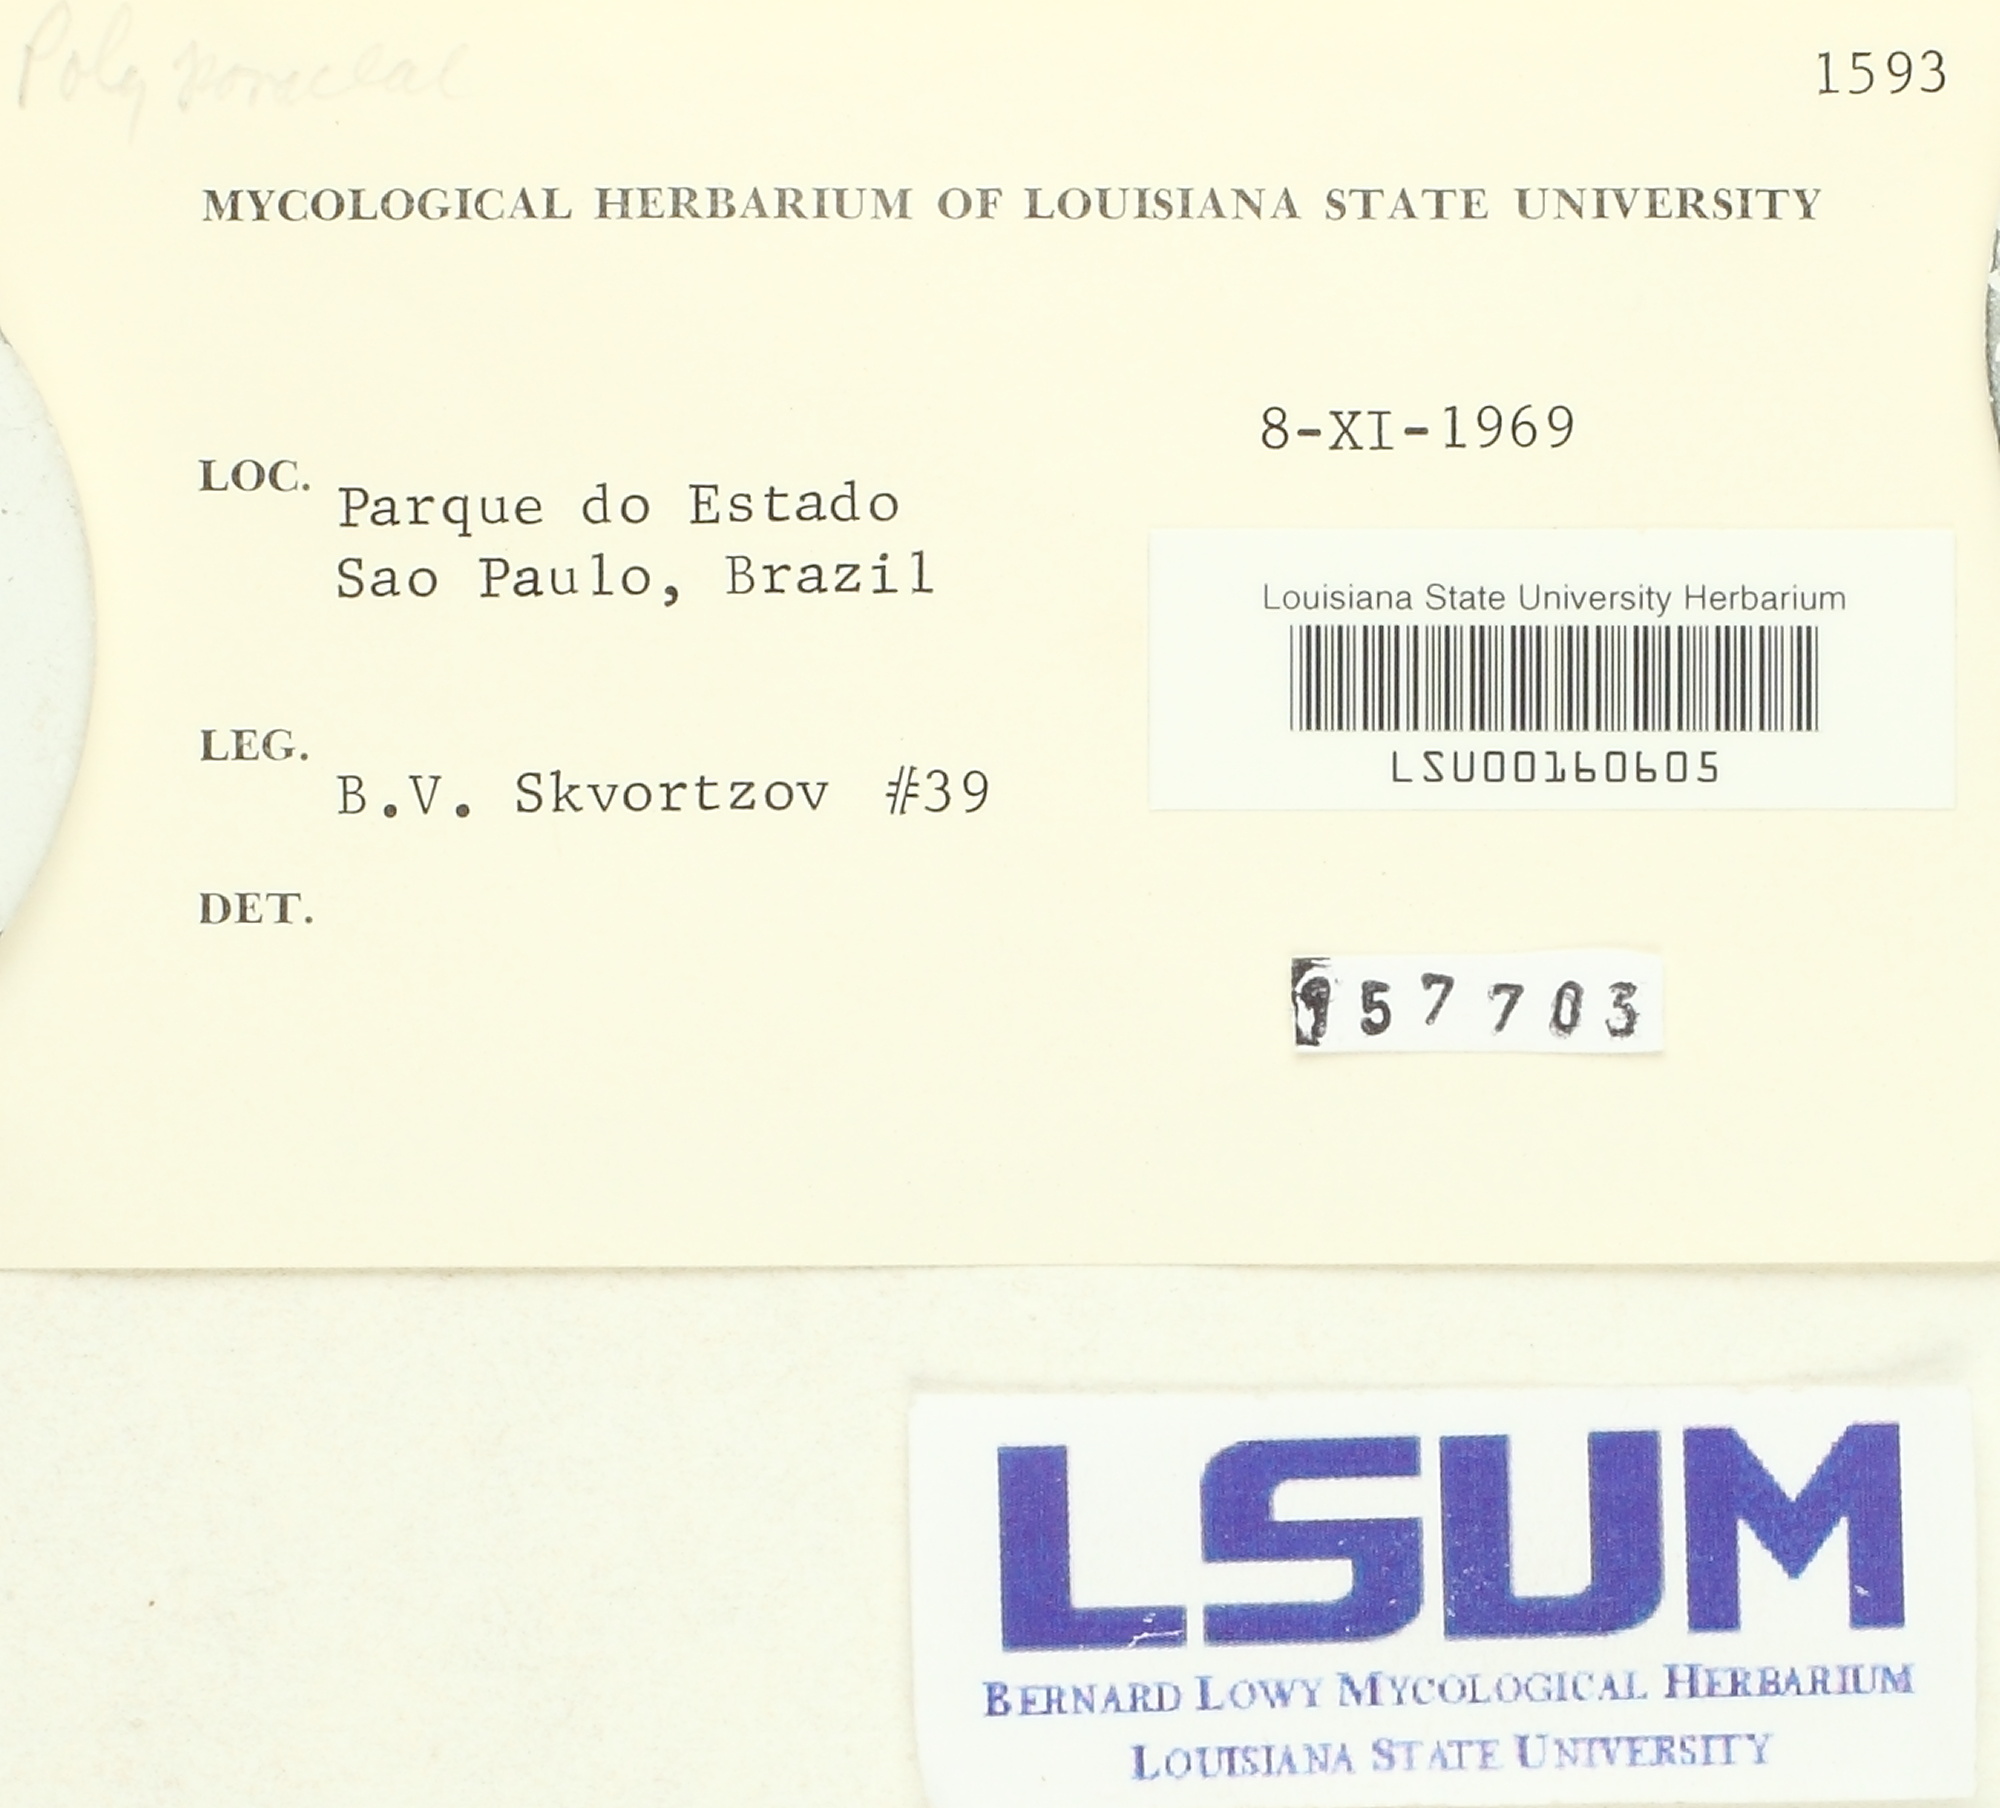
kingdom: Fungi
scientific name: Fungi
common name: Fungi
